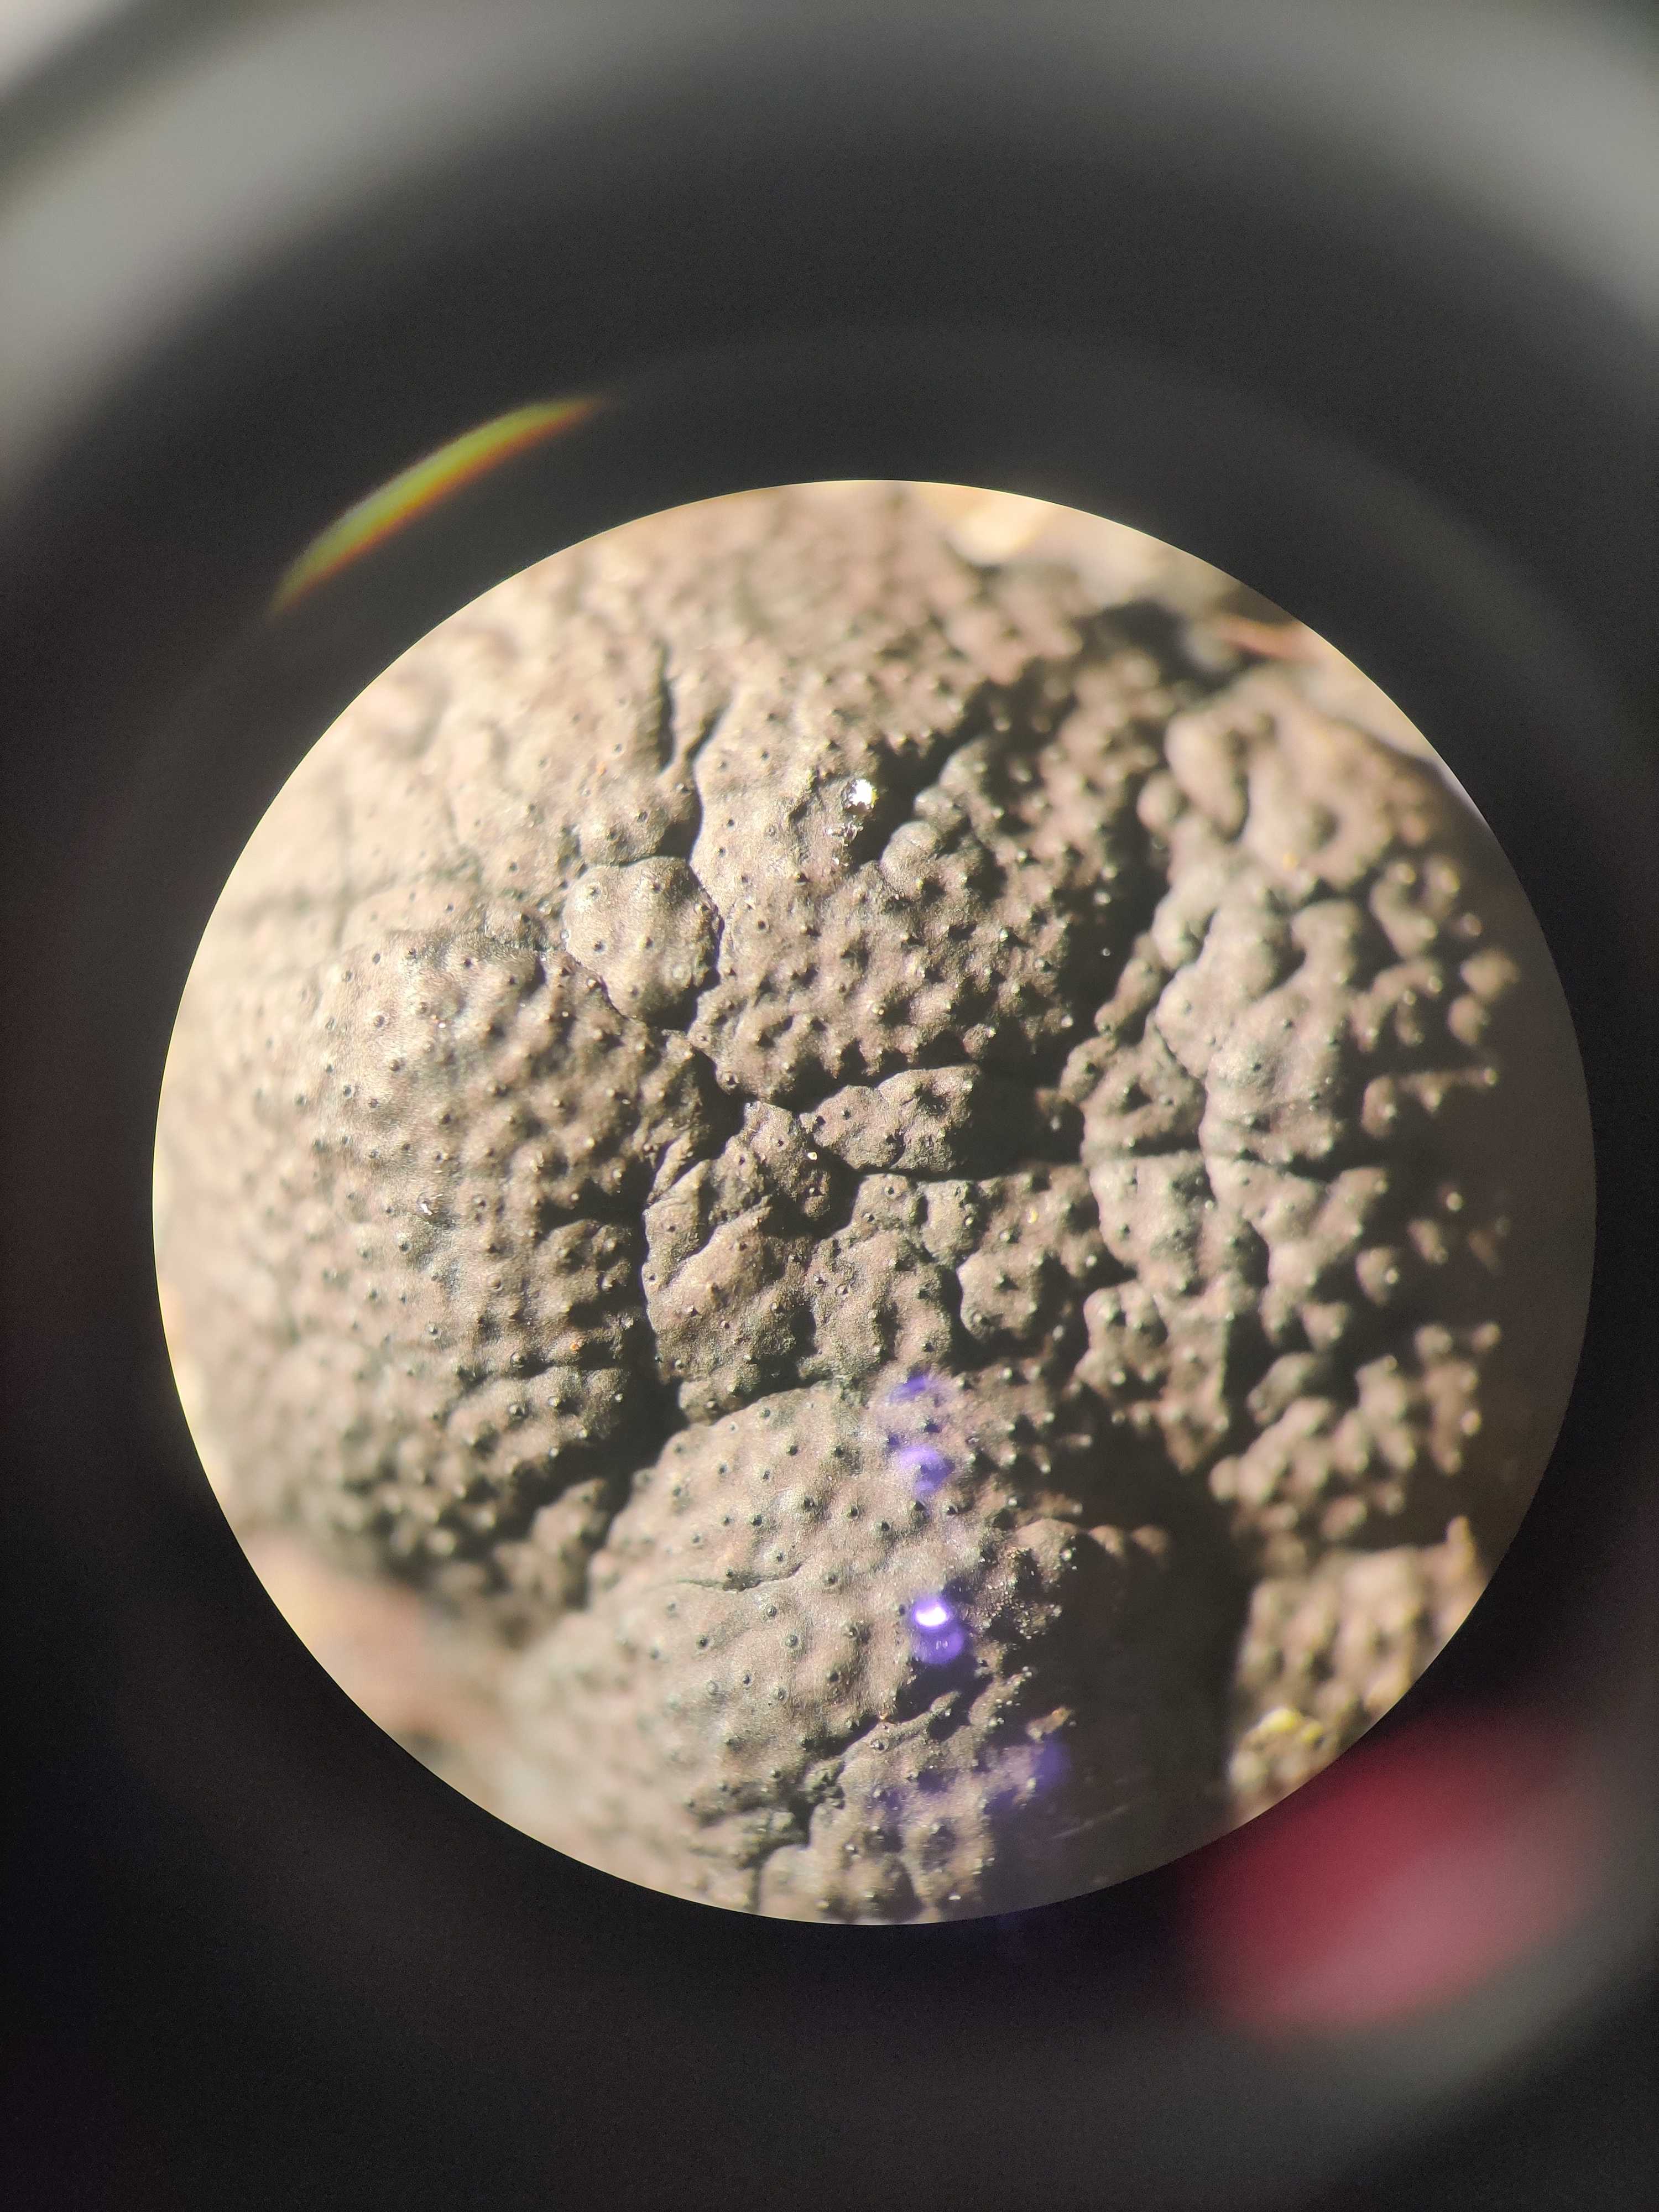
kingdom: Fungi
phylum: Ascomycota
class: Sordariomycetes
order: Xylariales
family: Hypoxylaceae
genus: Jackrogersella
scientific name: Jackrogersella multiformis
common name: foranderlig kulbær
